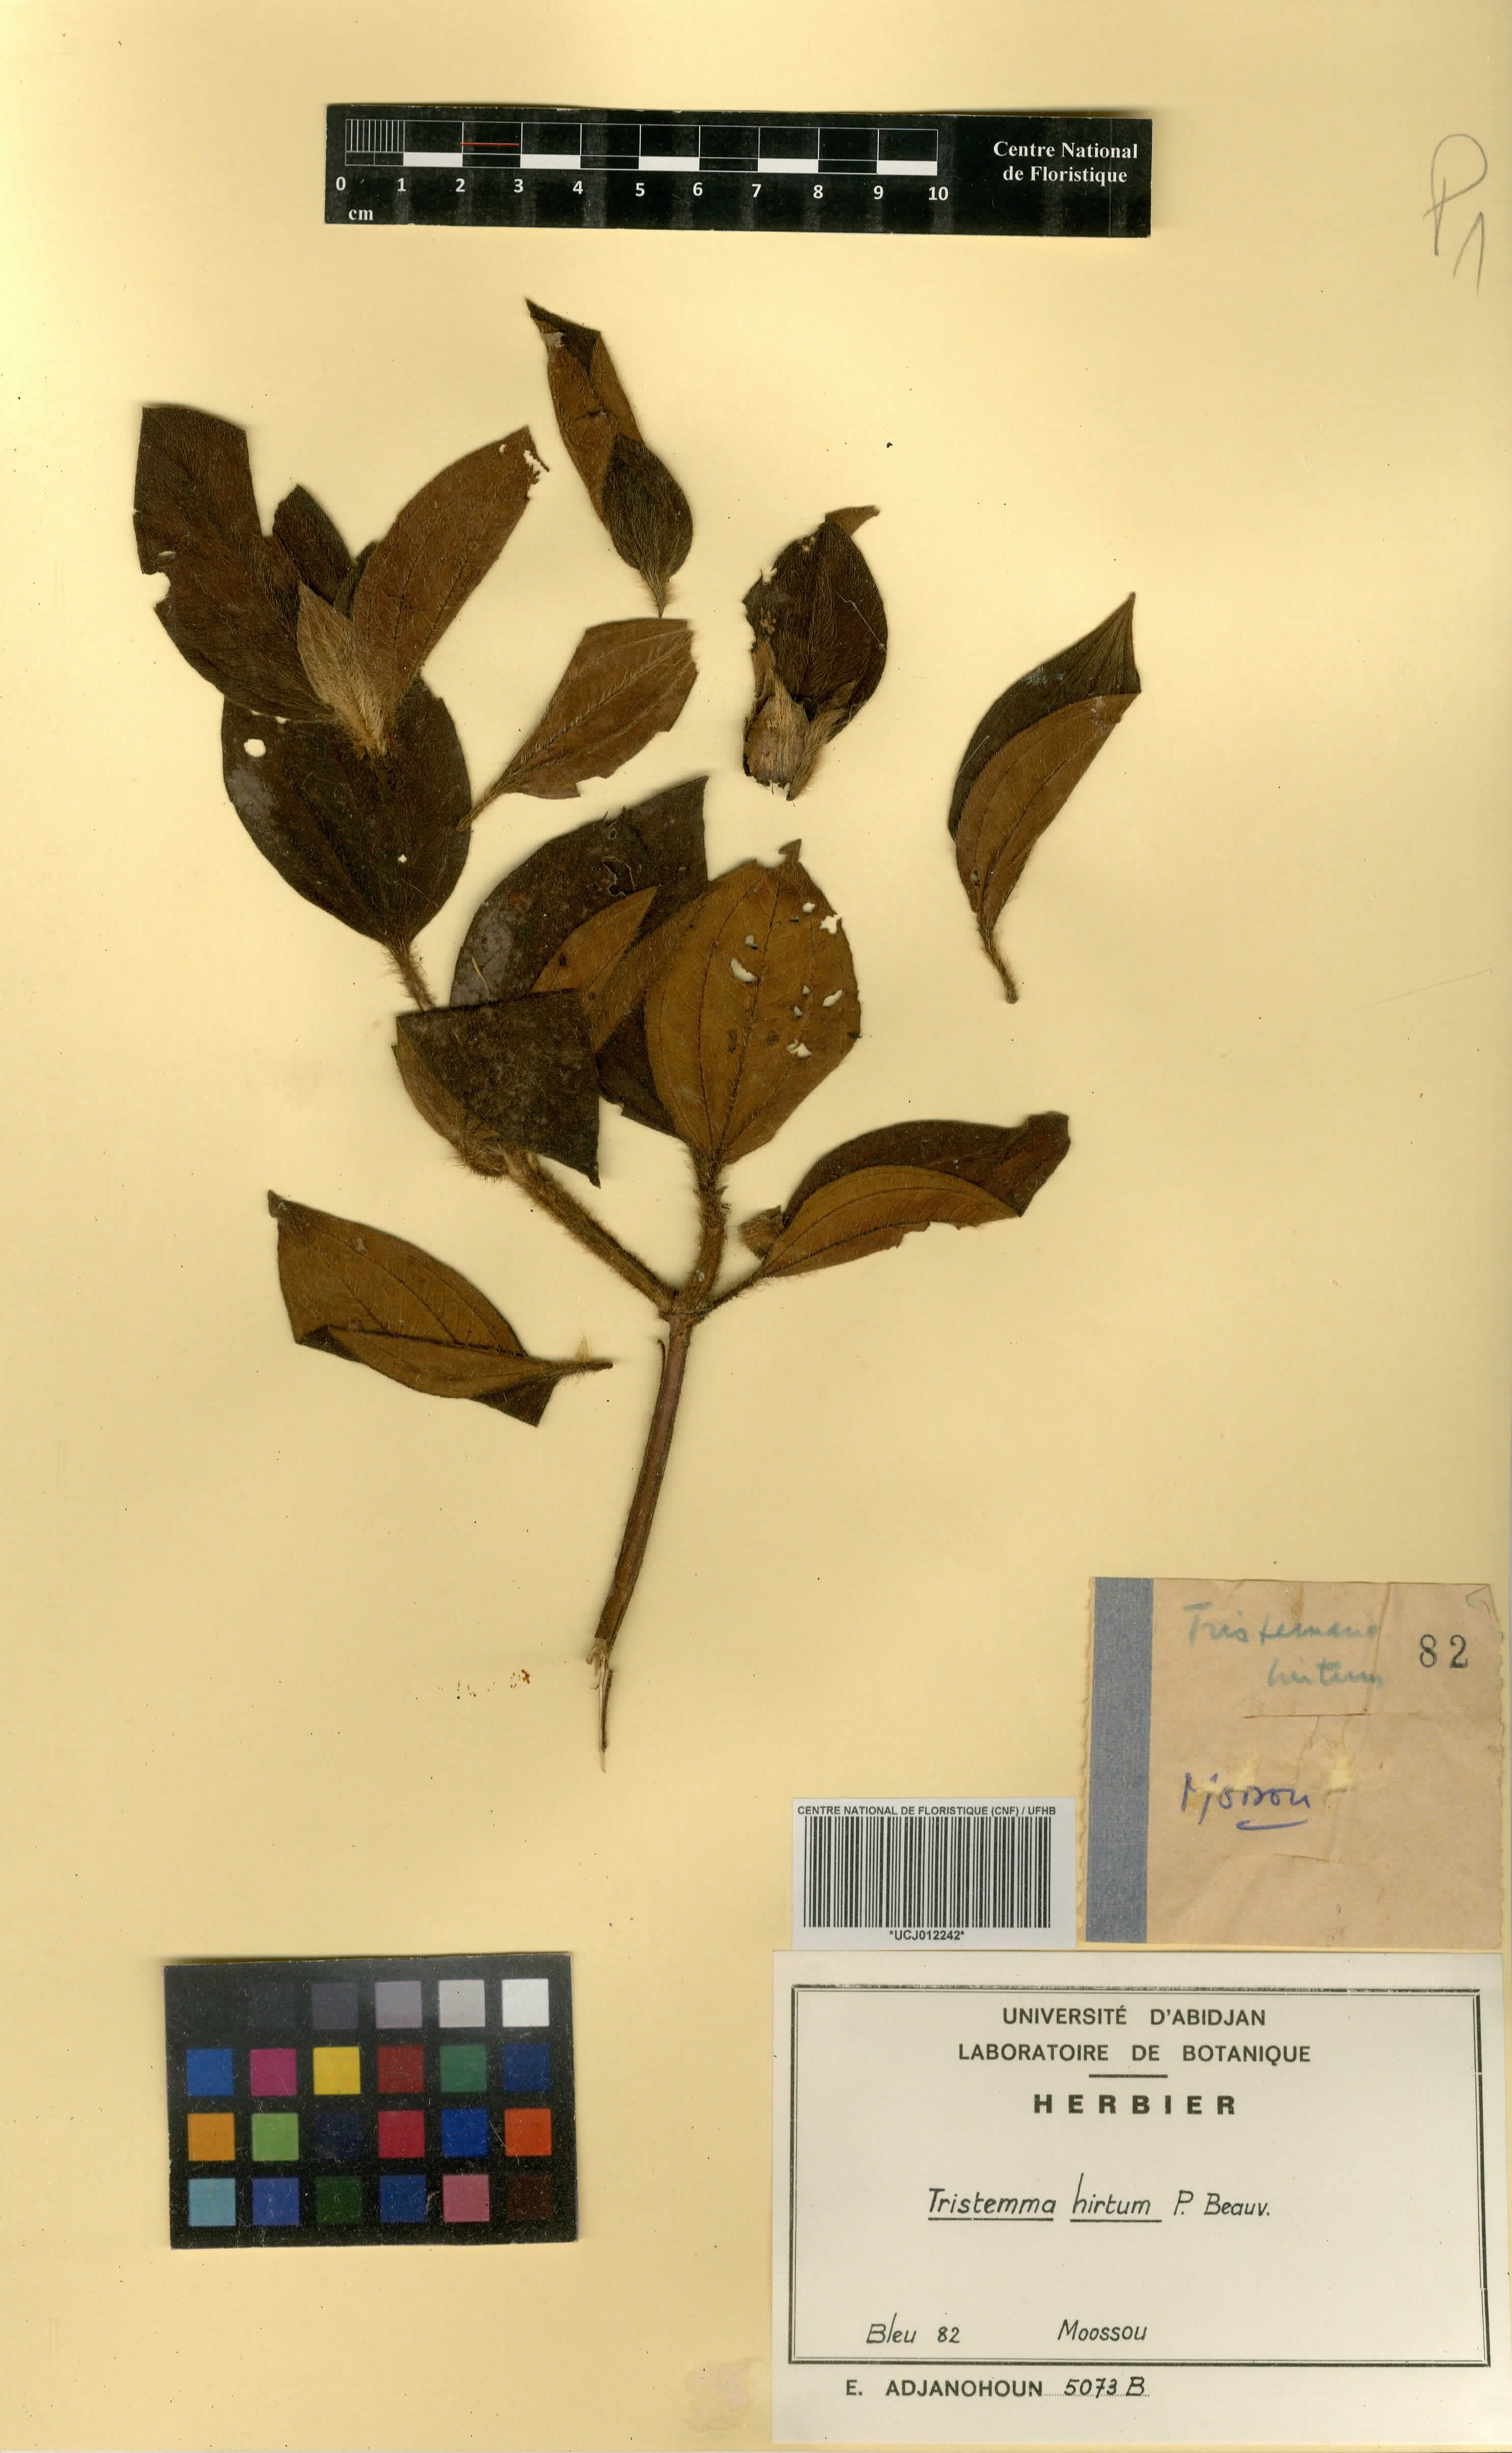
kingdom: Plantae
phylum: Tracheophyta
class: Magnoliopsida
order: Myrtales
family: Melastomataceae
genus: Tristemma
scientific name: Tristemma hirtum
